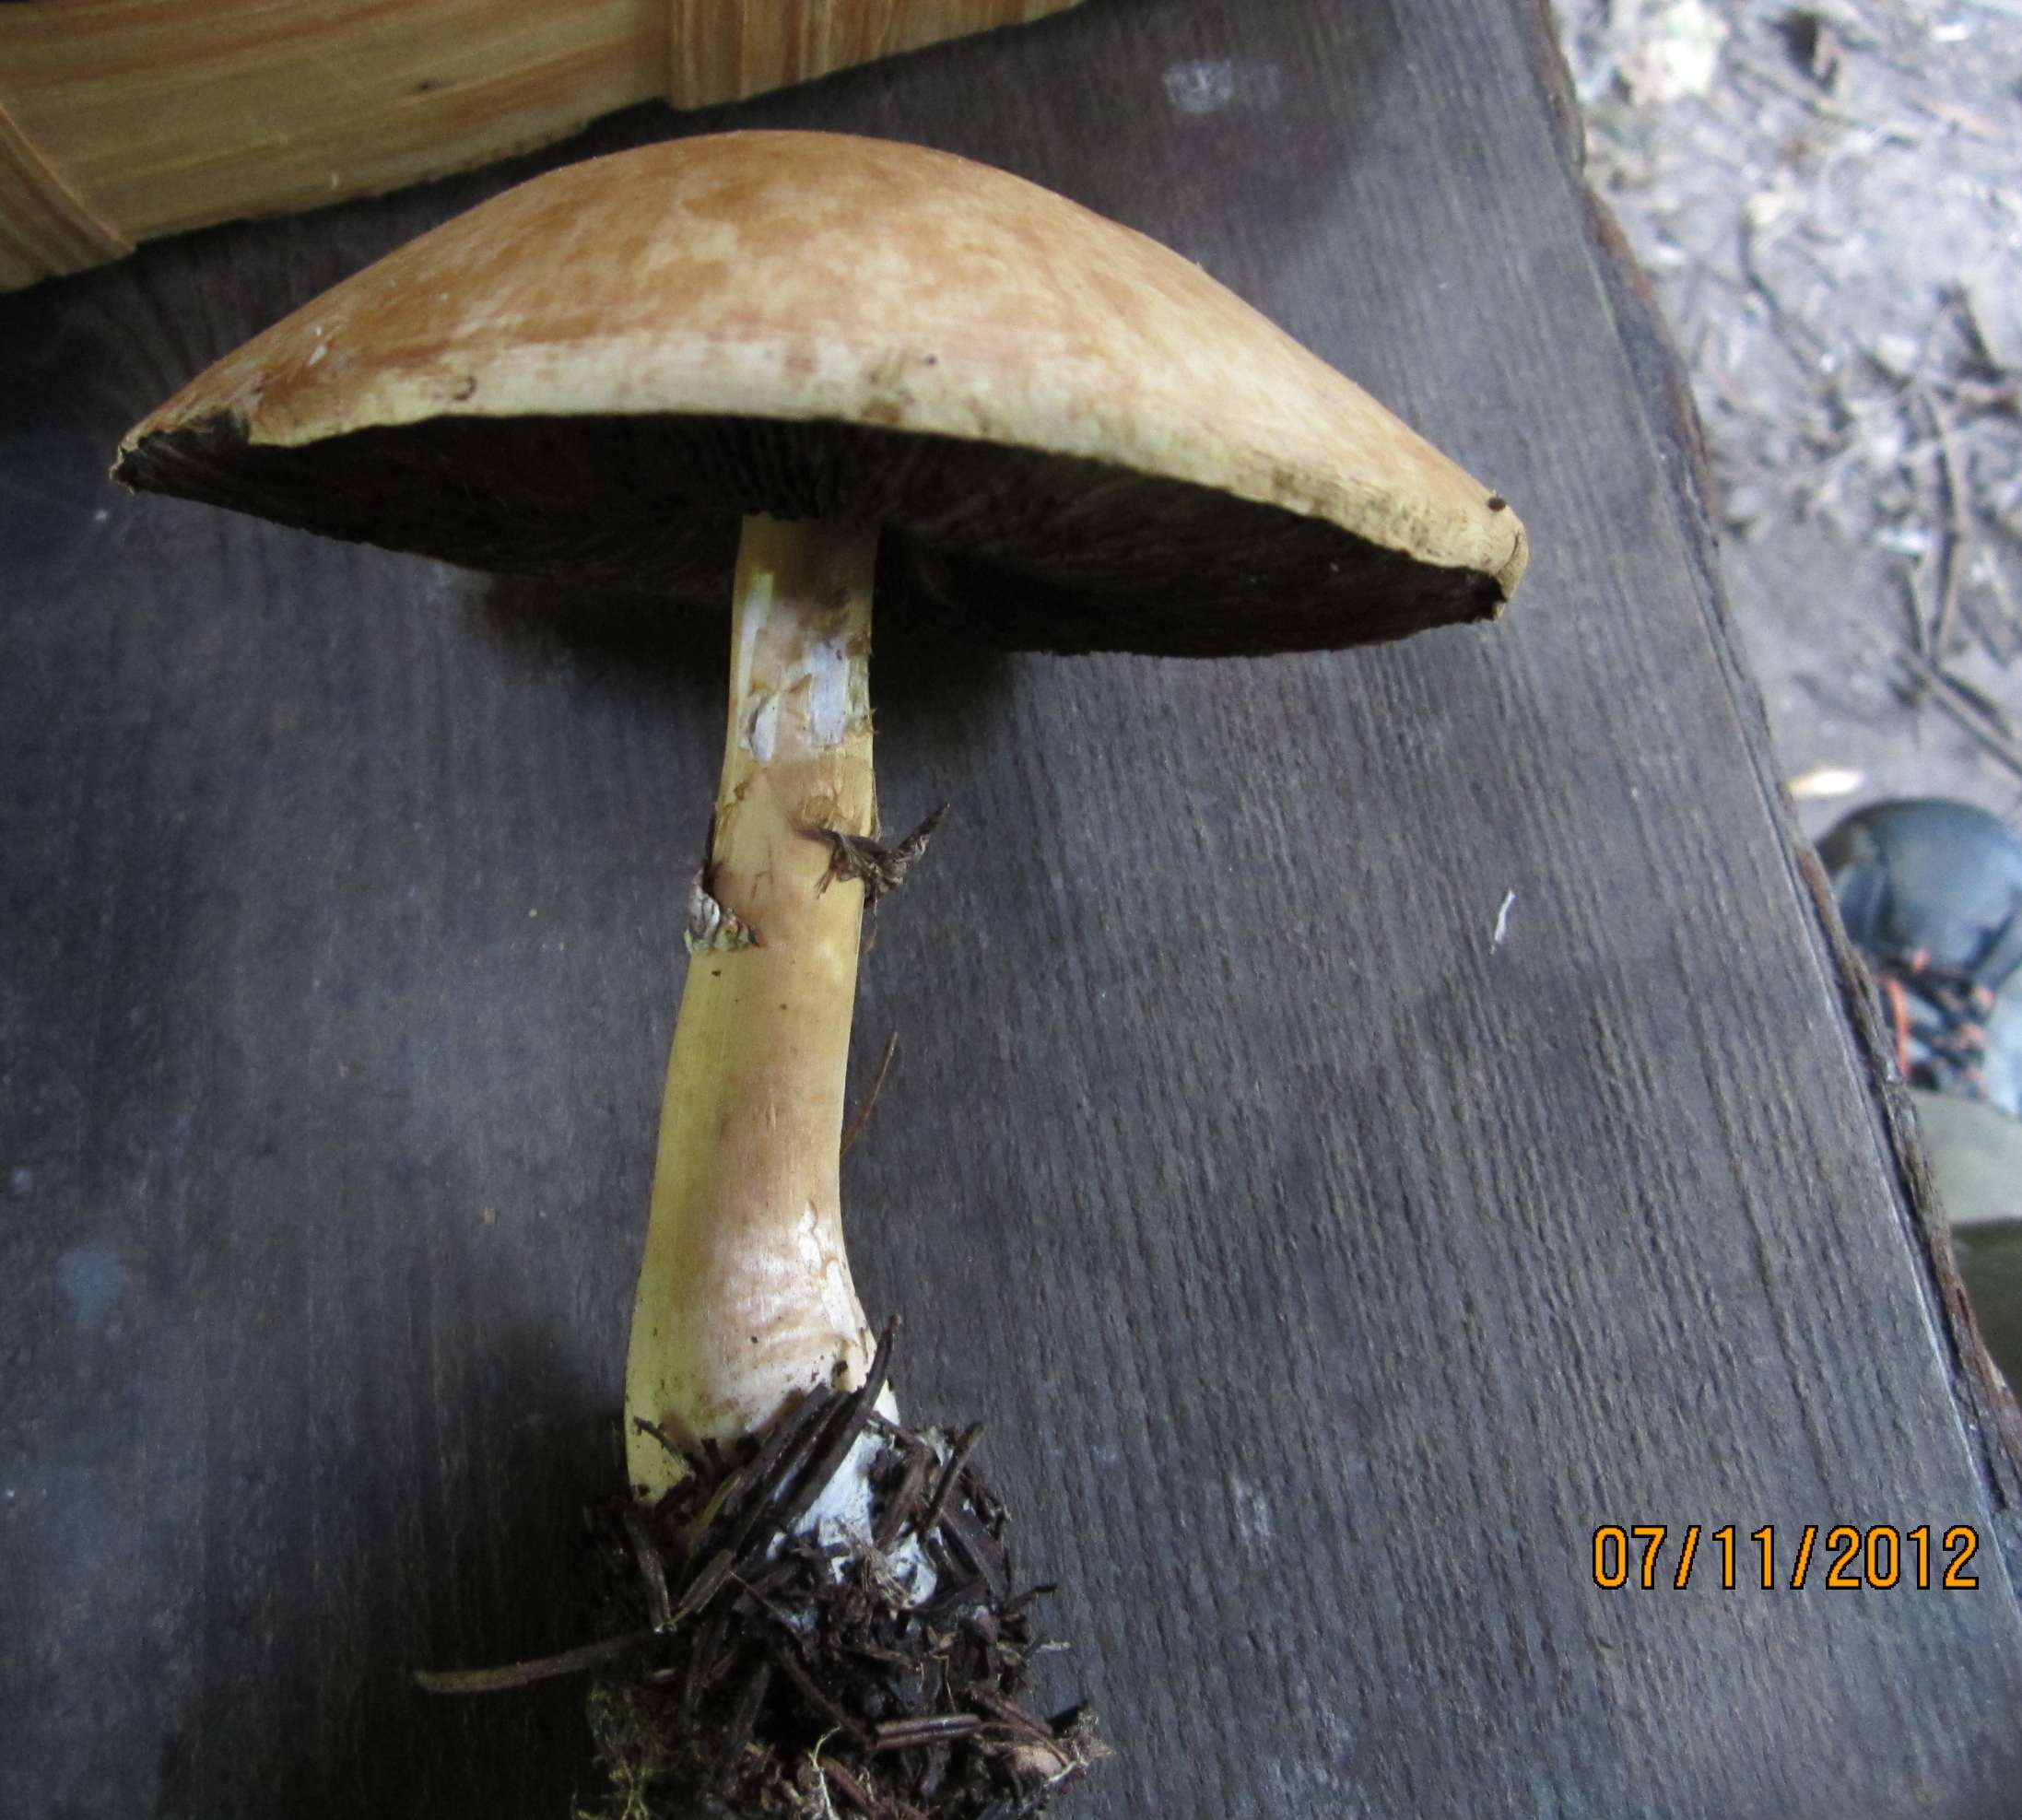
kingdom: Fungi
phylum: Basidiomycota
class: Agaricomycetes
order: Agaricales
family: Agaricaceae
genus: Agaricus
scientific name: Agaricus sylvicola
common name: gulhvid champignon
